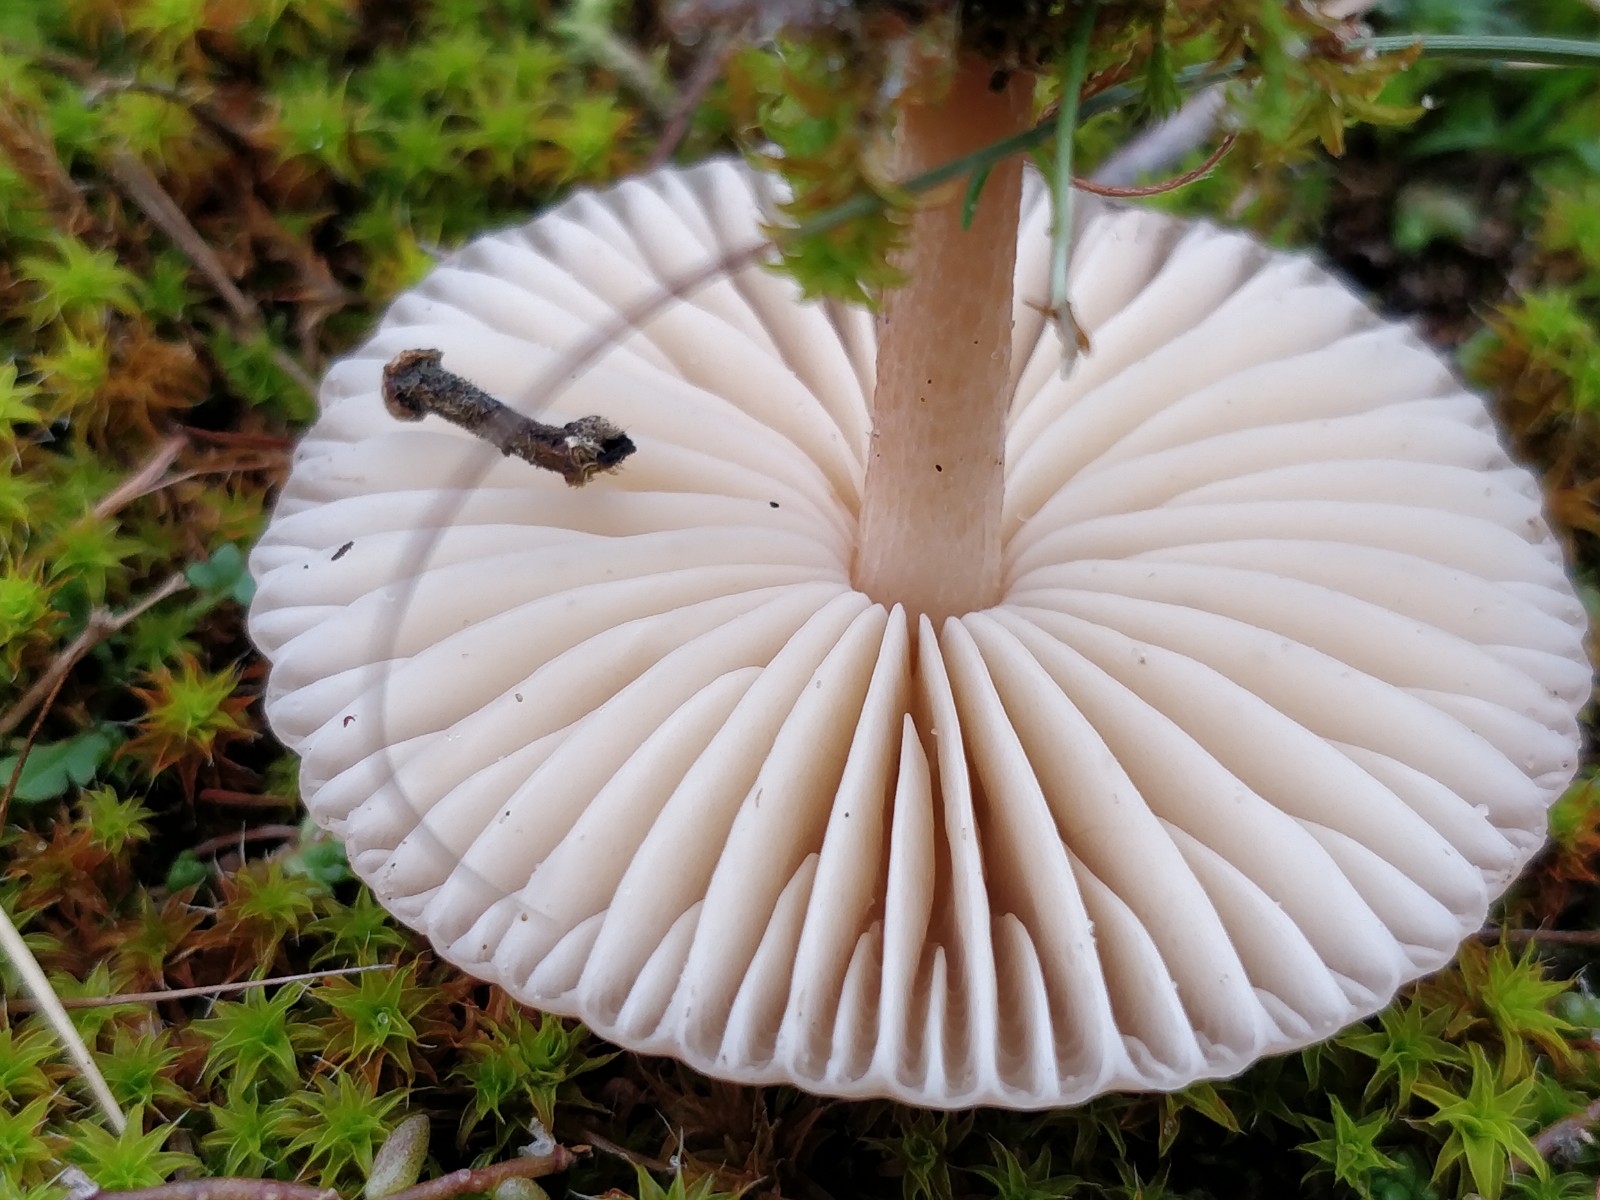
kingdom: Fungi
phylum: Basidiomycota
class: Agaricomycetes
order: Agaricales
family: Marasmiaceae
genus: Marasmius
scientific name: Marasmius oreades
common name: elledans-bruskhat
